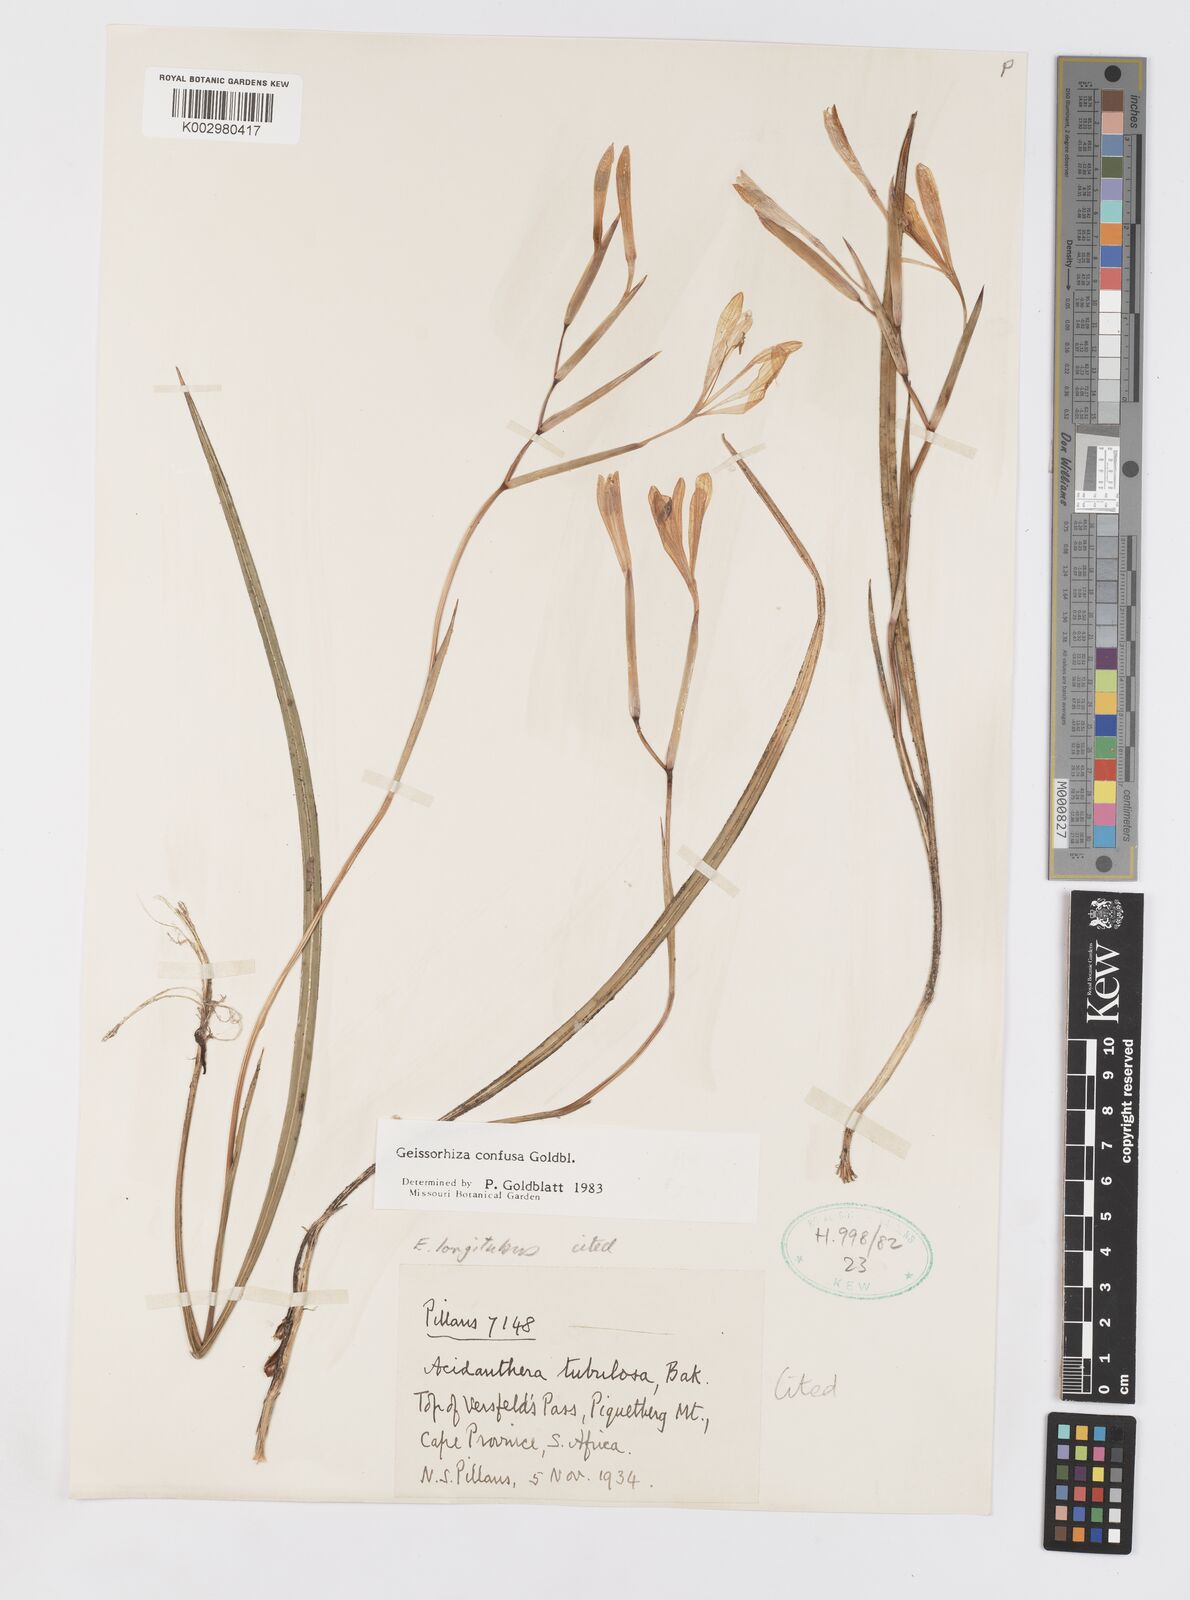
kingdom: Plantae
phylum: Tracheophyta
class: Liliopsida
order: Asparagales
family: Iridaceae
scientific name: Iridaceae
